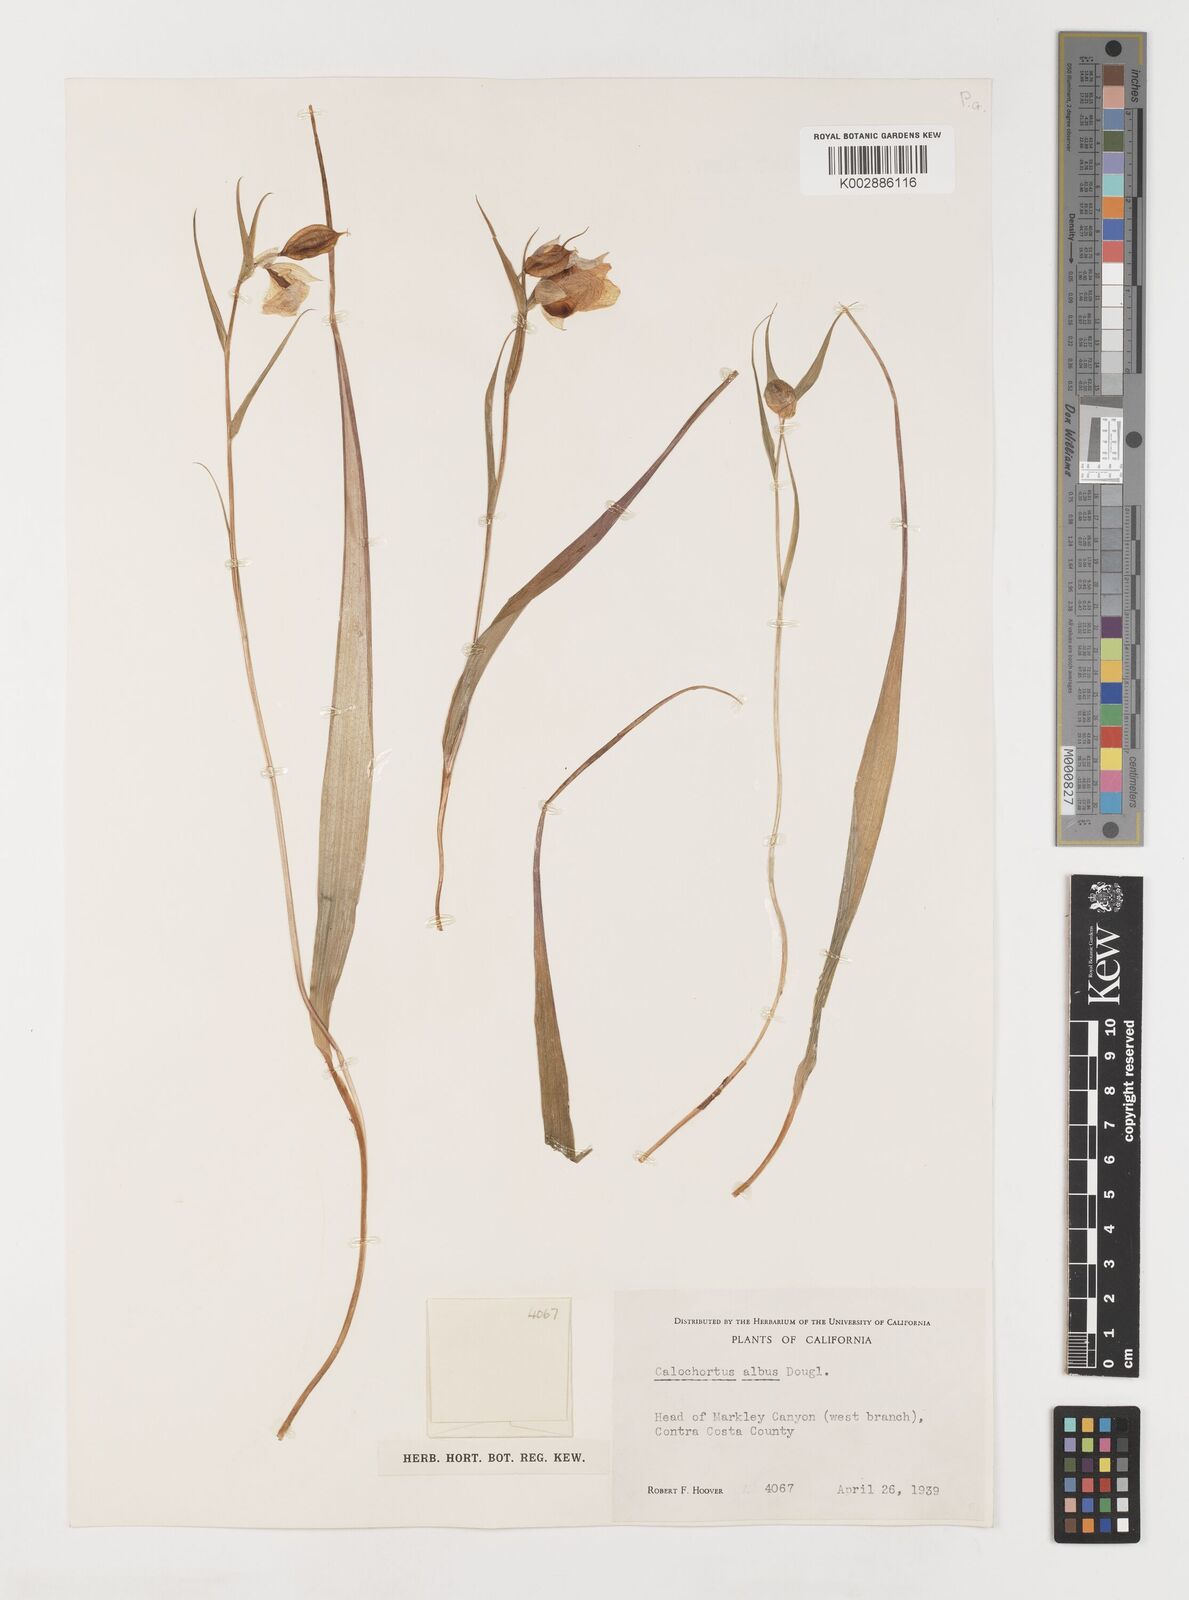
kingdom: Plantae
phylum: Tracheophyta
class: Liliopsida
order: Liliales
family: Liliaceae
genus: Calochortus
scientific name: Calochortus albus
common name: Fairy-lantern
